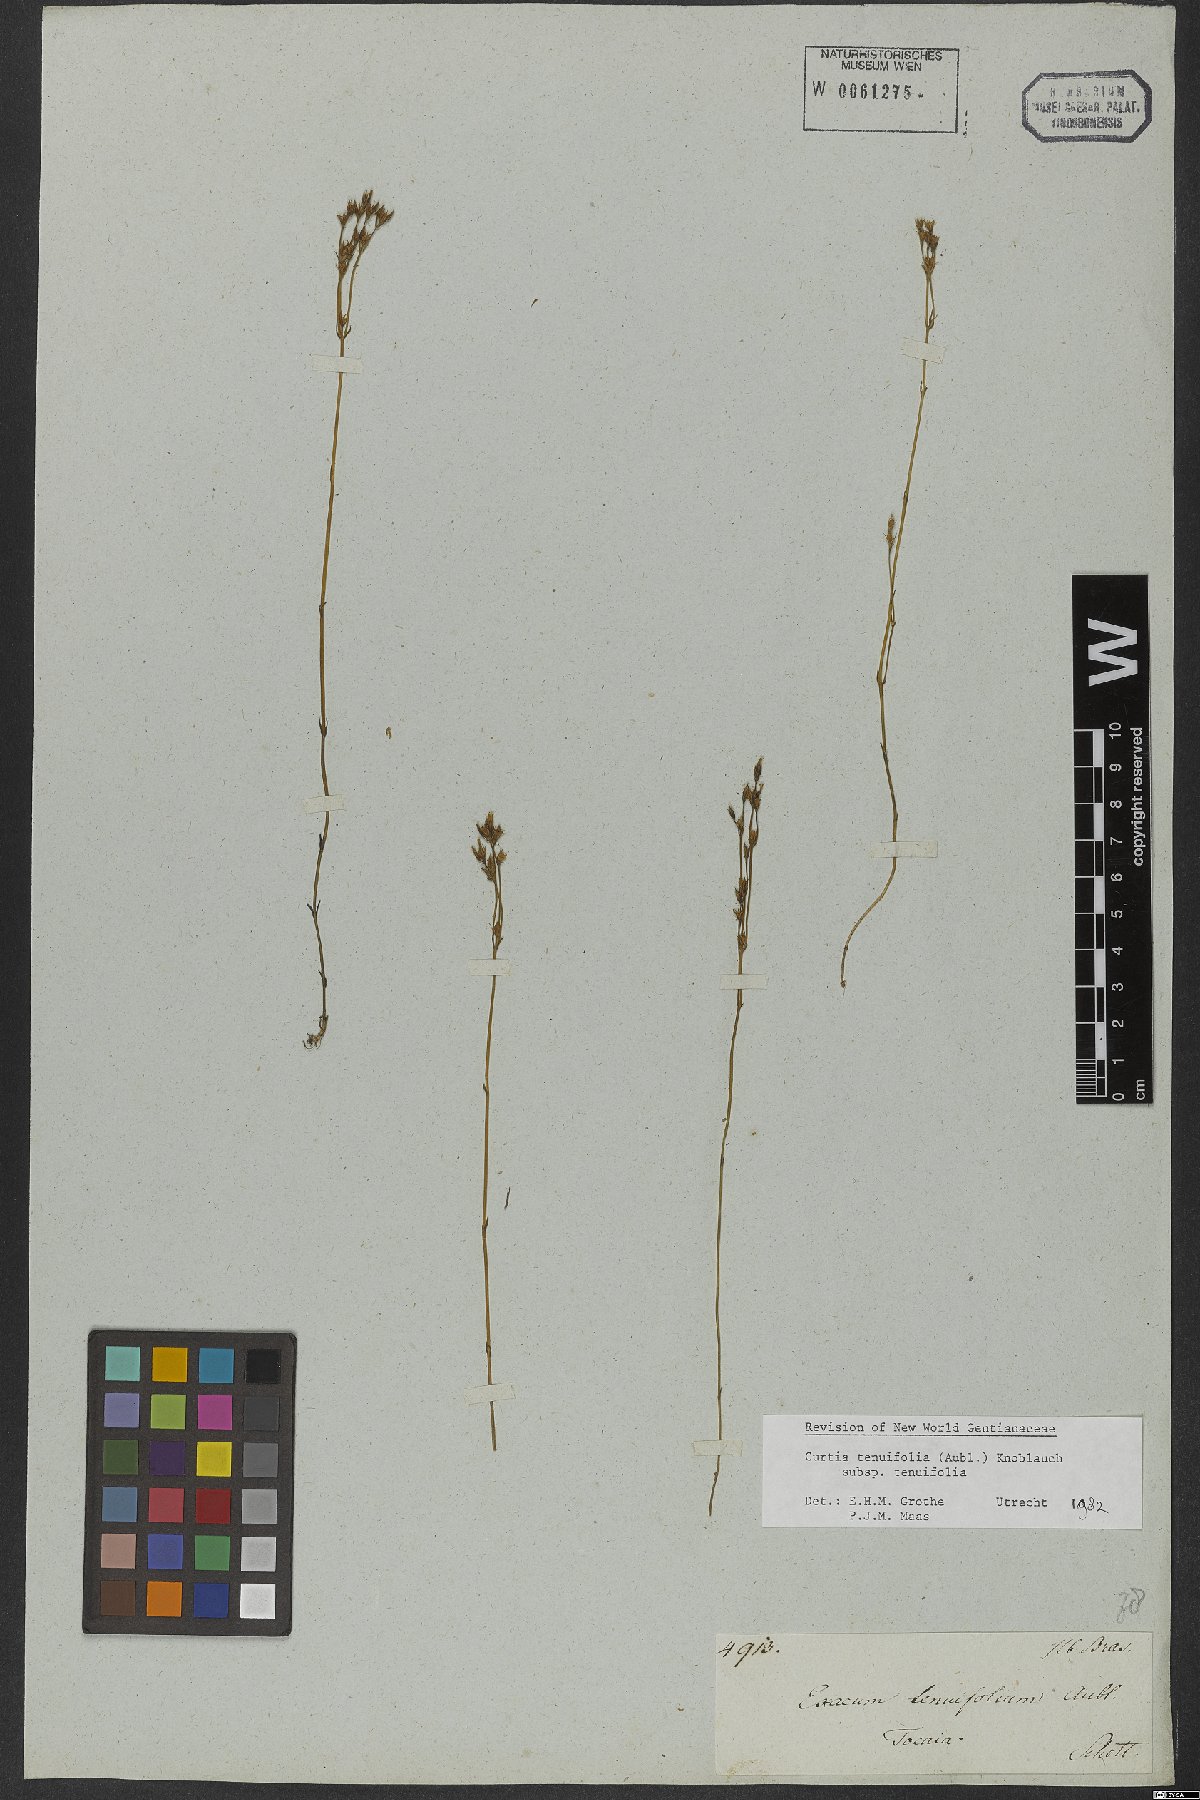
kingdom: Plantae
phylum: Tracheophyta
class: Magnoliopsida
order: Gentianales
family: Gentianaceae
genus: Curtia
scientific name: Curtia tenuifolia
